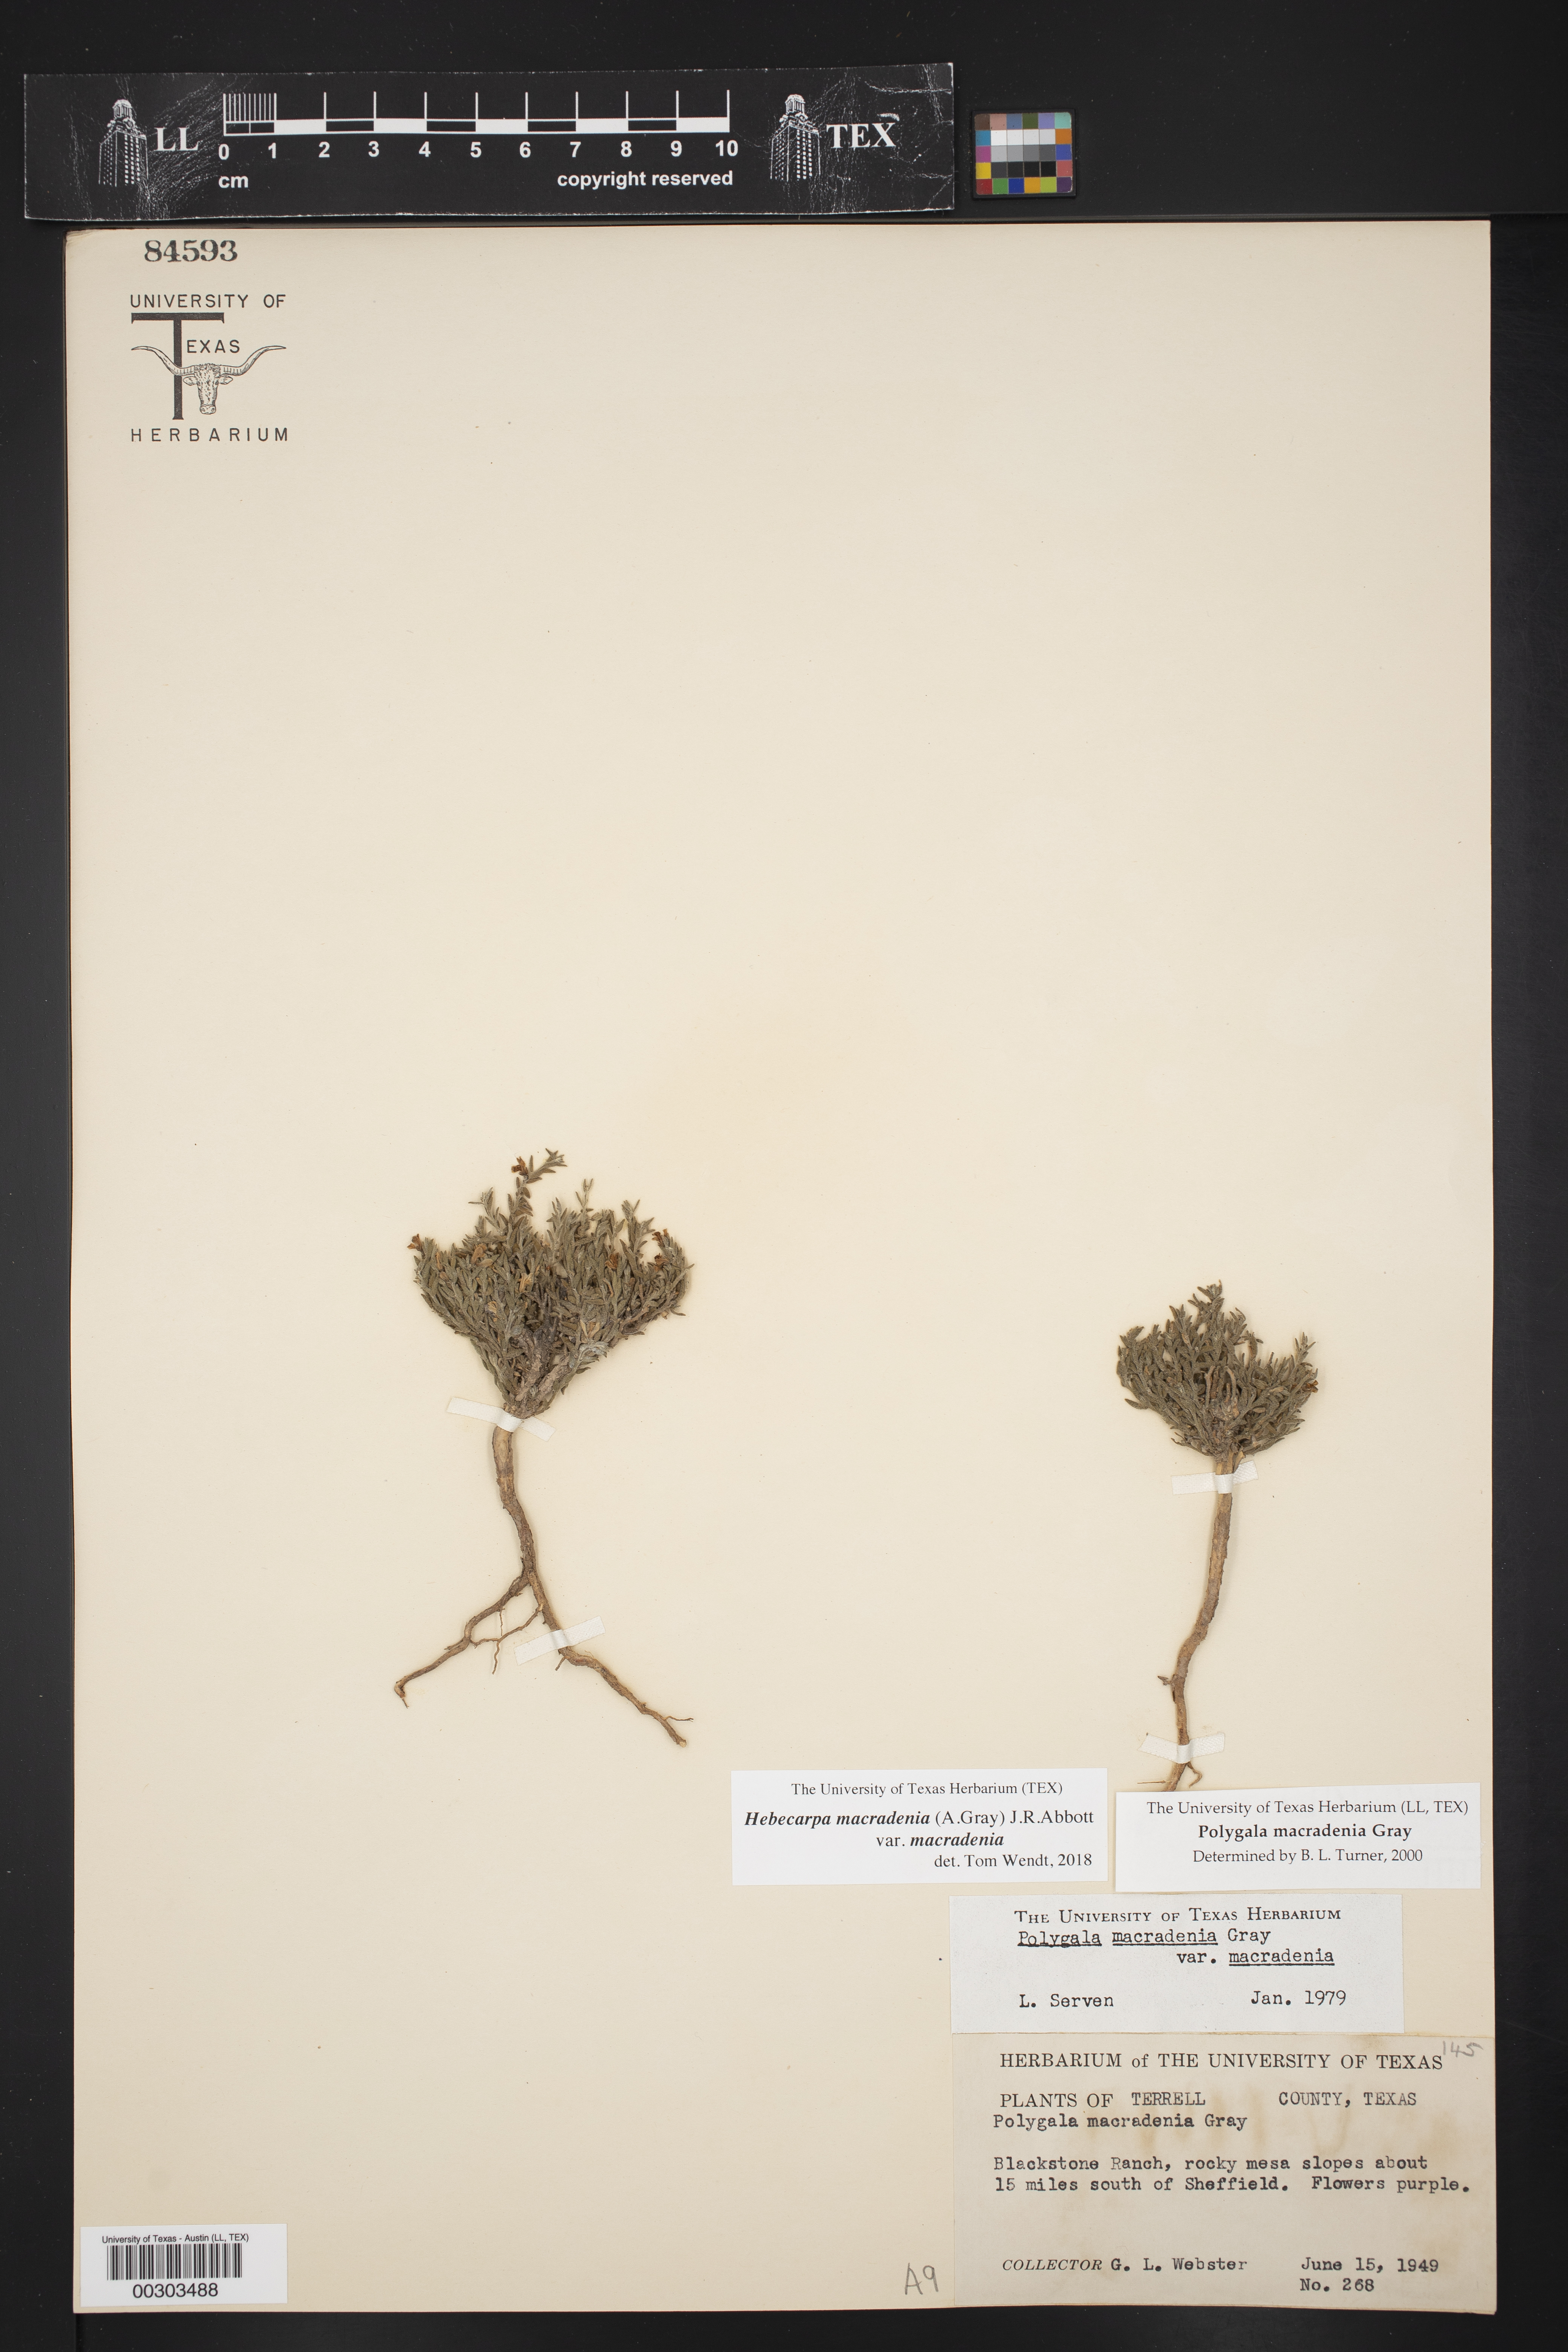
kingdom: Plantae
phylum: Tracheophyta
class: Magnoliopsida
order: Fabales
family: Polygalaceae
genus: Hebecarpa
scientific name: Hebecarpa macradenia
